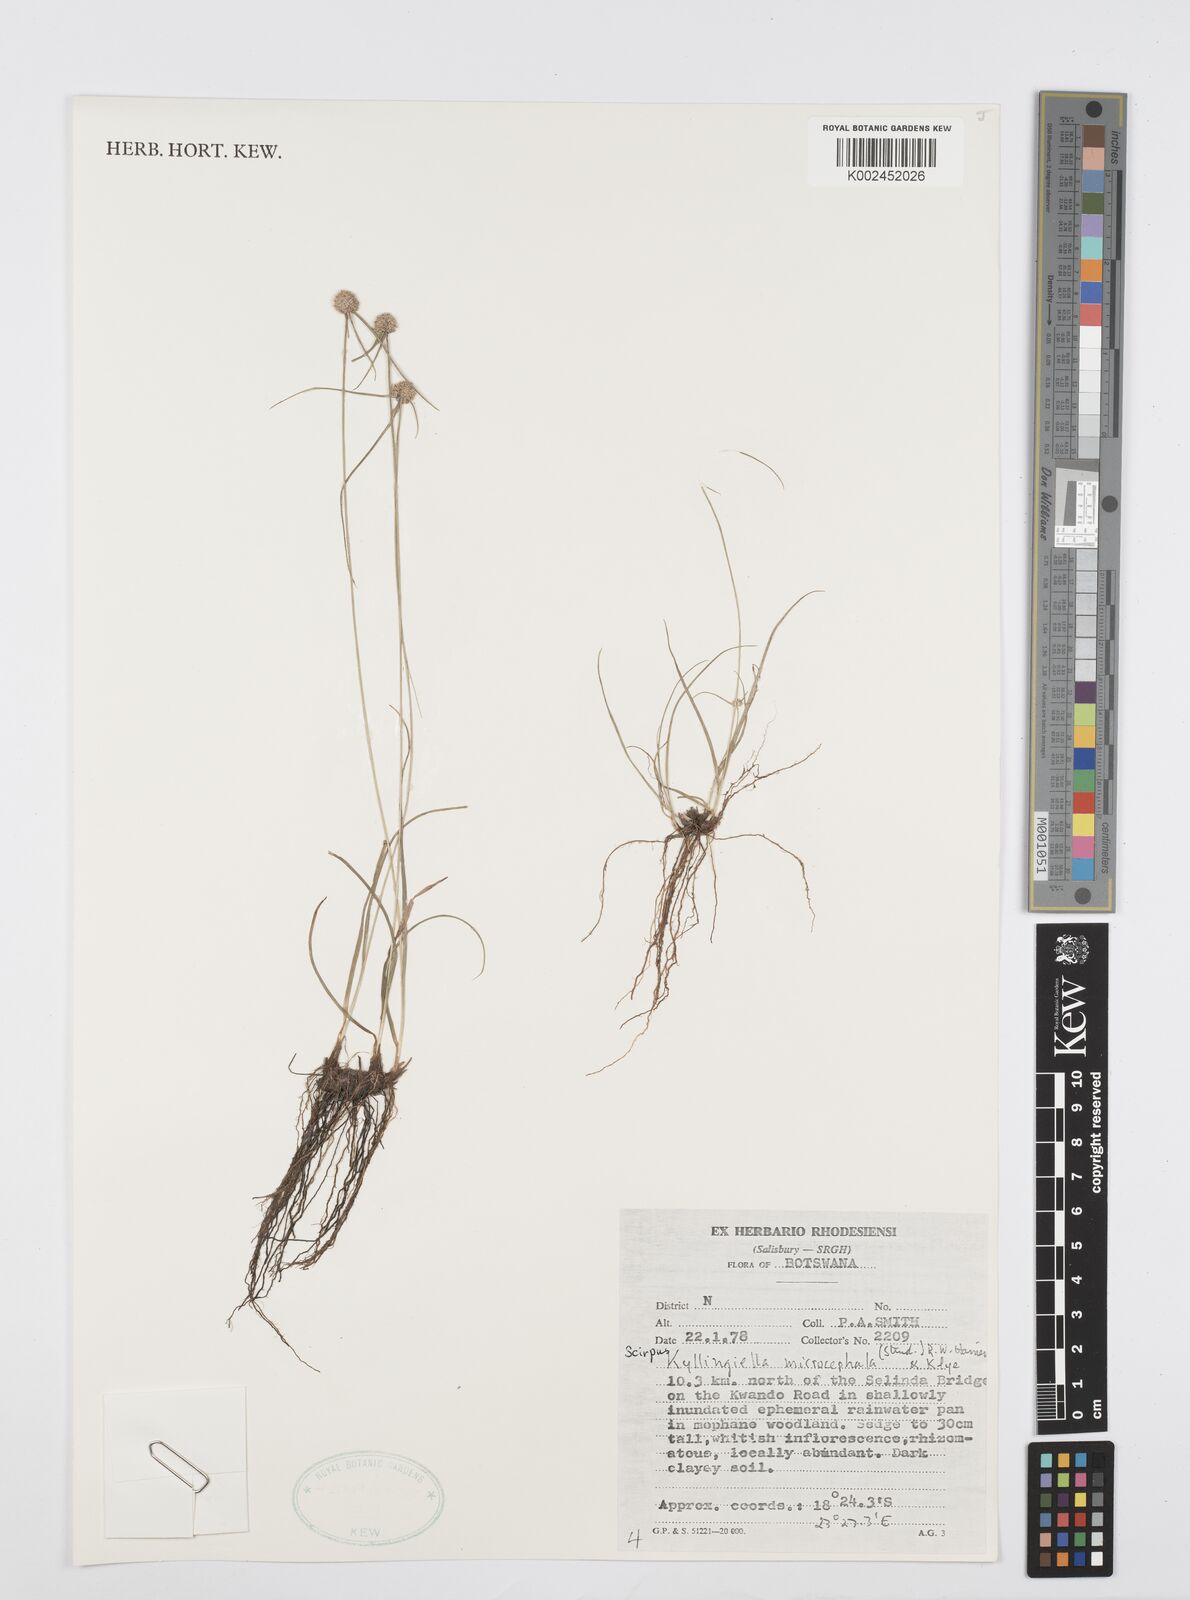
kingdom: Plantae
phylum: Tracheophyta
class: Liliopsida
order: Poales
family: Cyperaceae
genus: Cyperus
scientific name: Cyperus microcephalus
